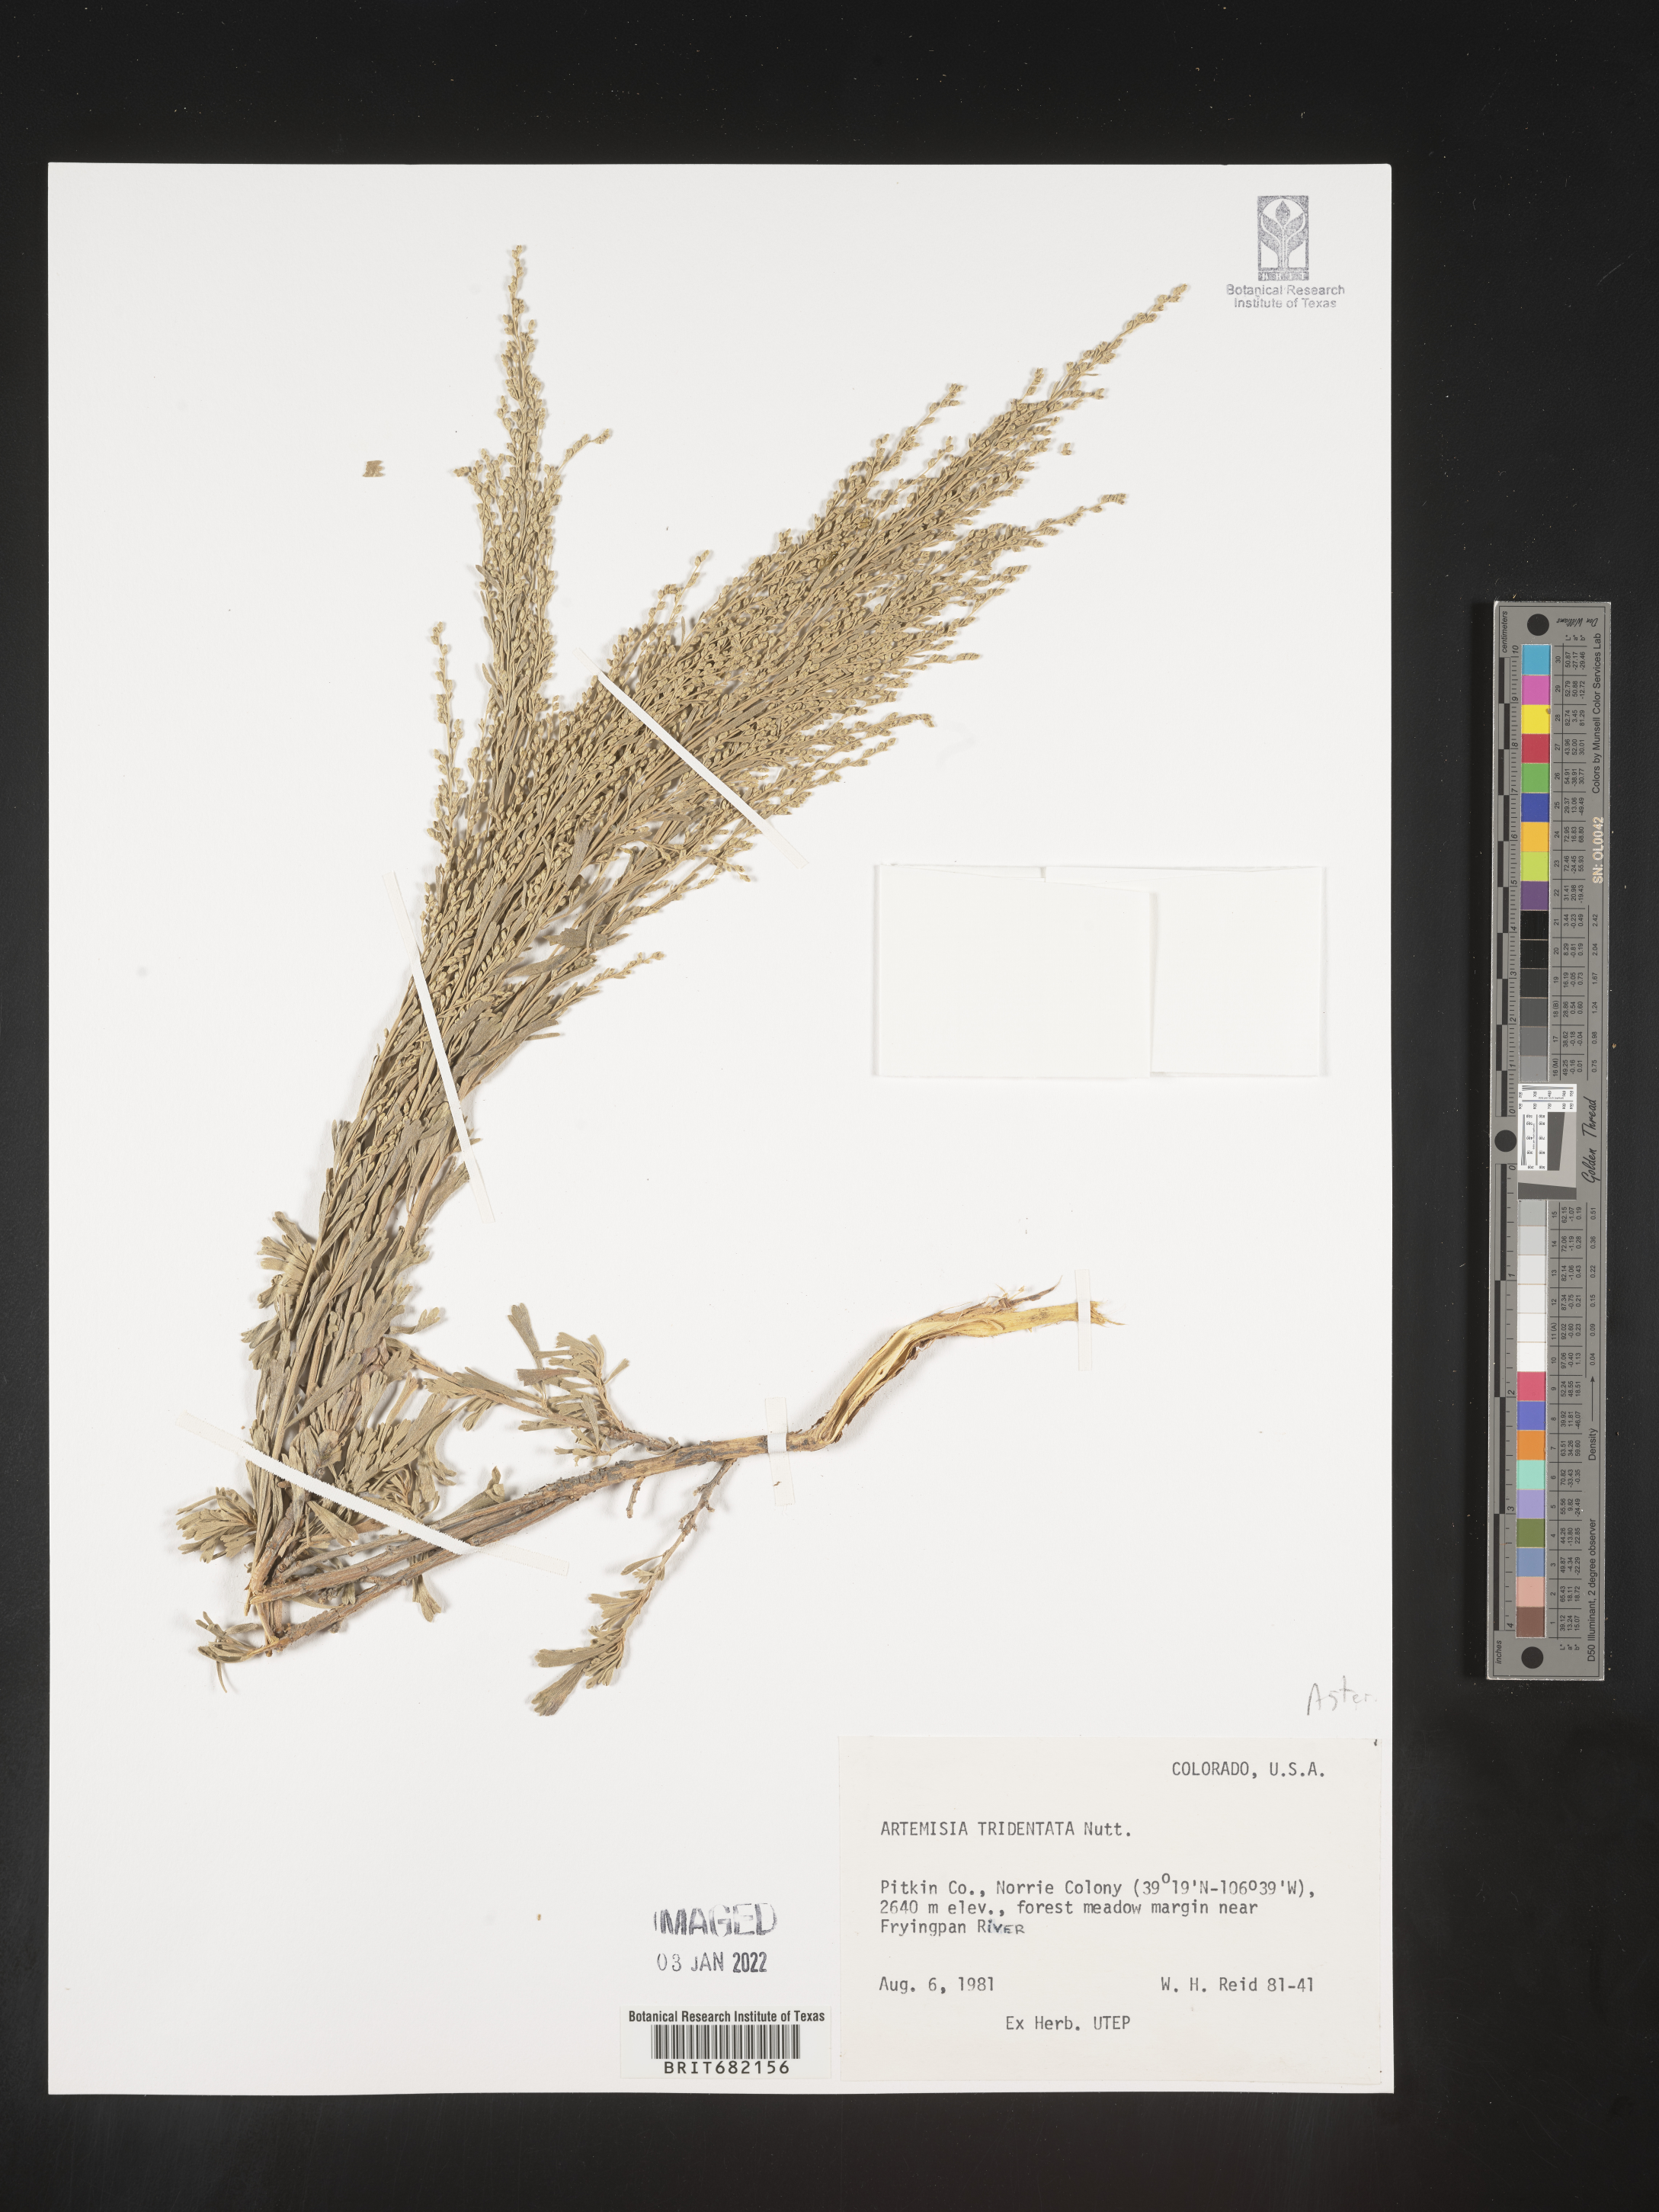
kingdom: Plantae
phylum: Tracheophyta
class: Magnoliopsida
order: Asterales
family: Asteraceae
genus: Artemisia
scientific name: Artemisia tridentata
